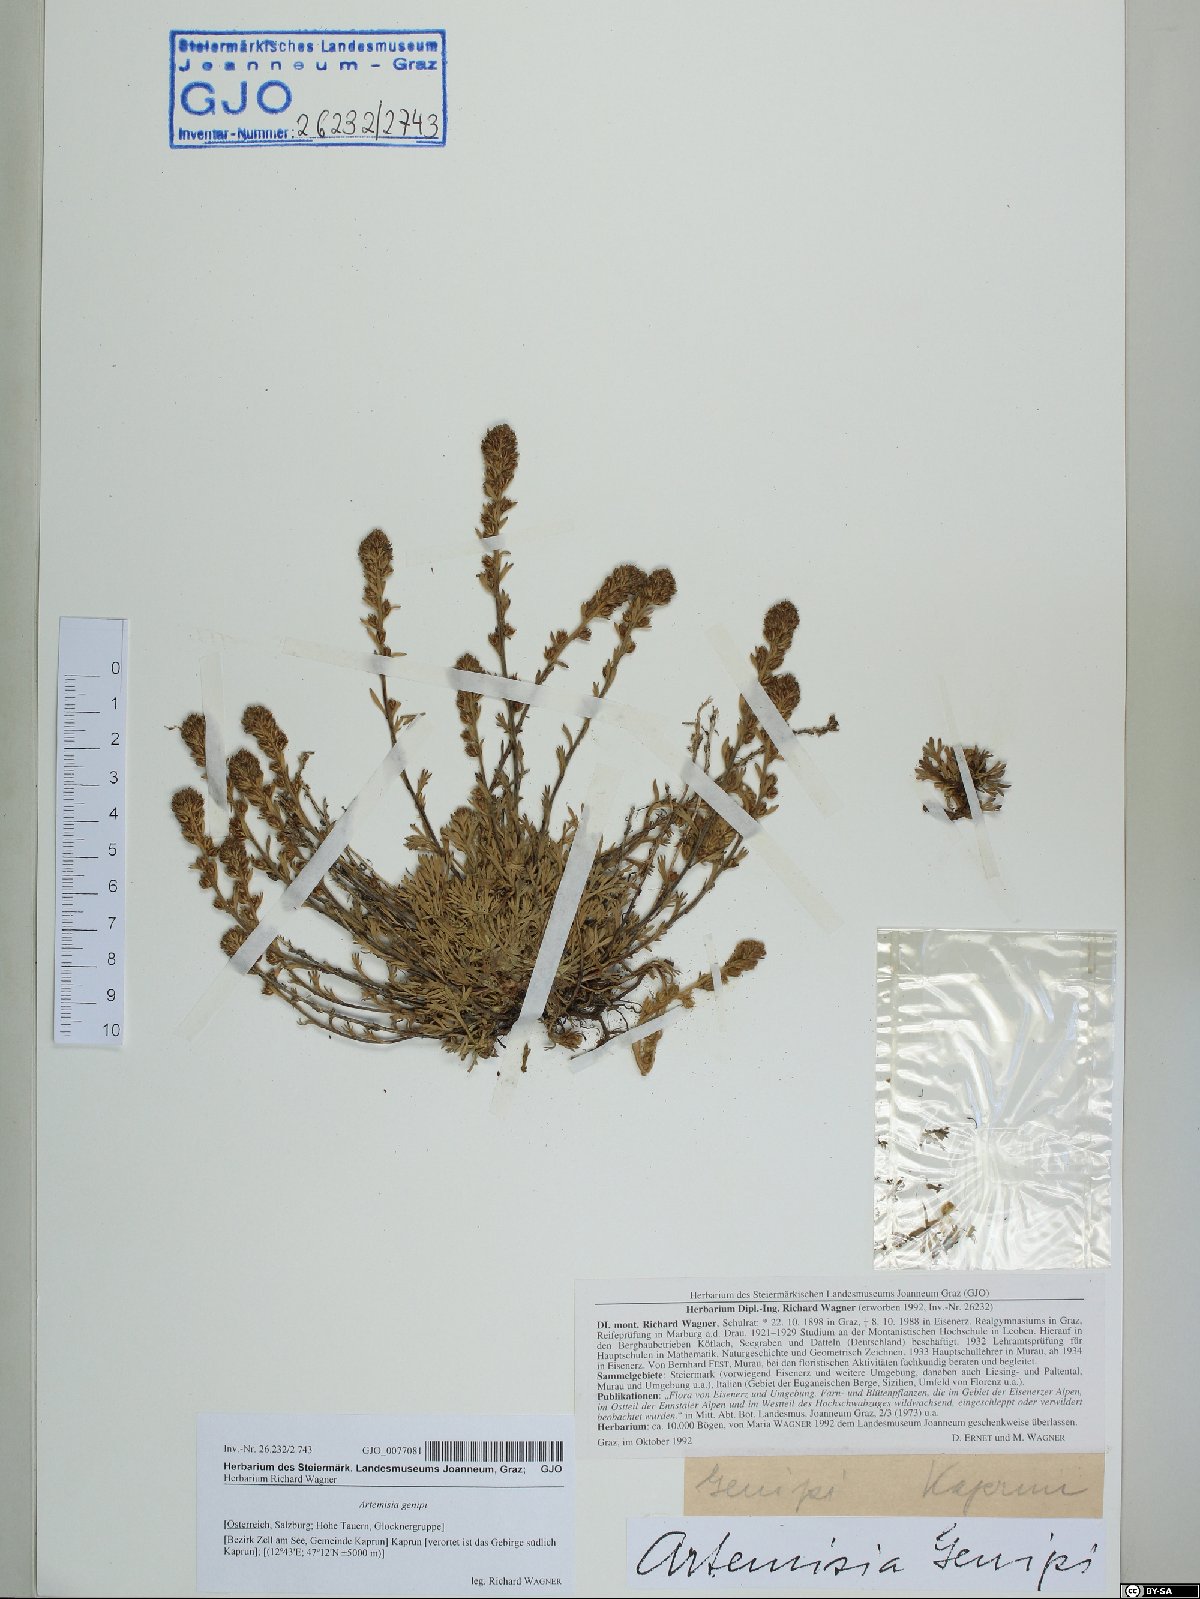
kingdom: Plantae
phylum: Tracheophyta
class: Magnoliopsida
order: Asterales
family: Asteraceae
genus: Artemisia
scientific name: Artemisia genipi
